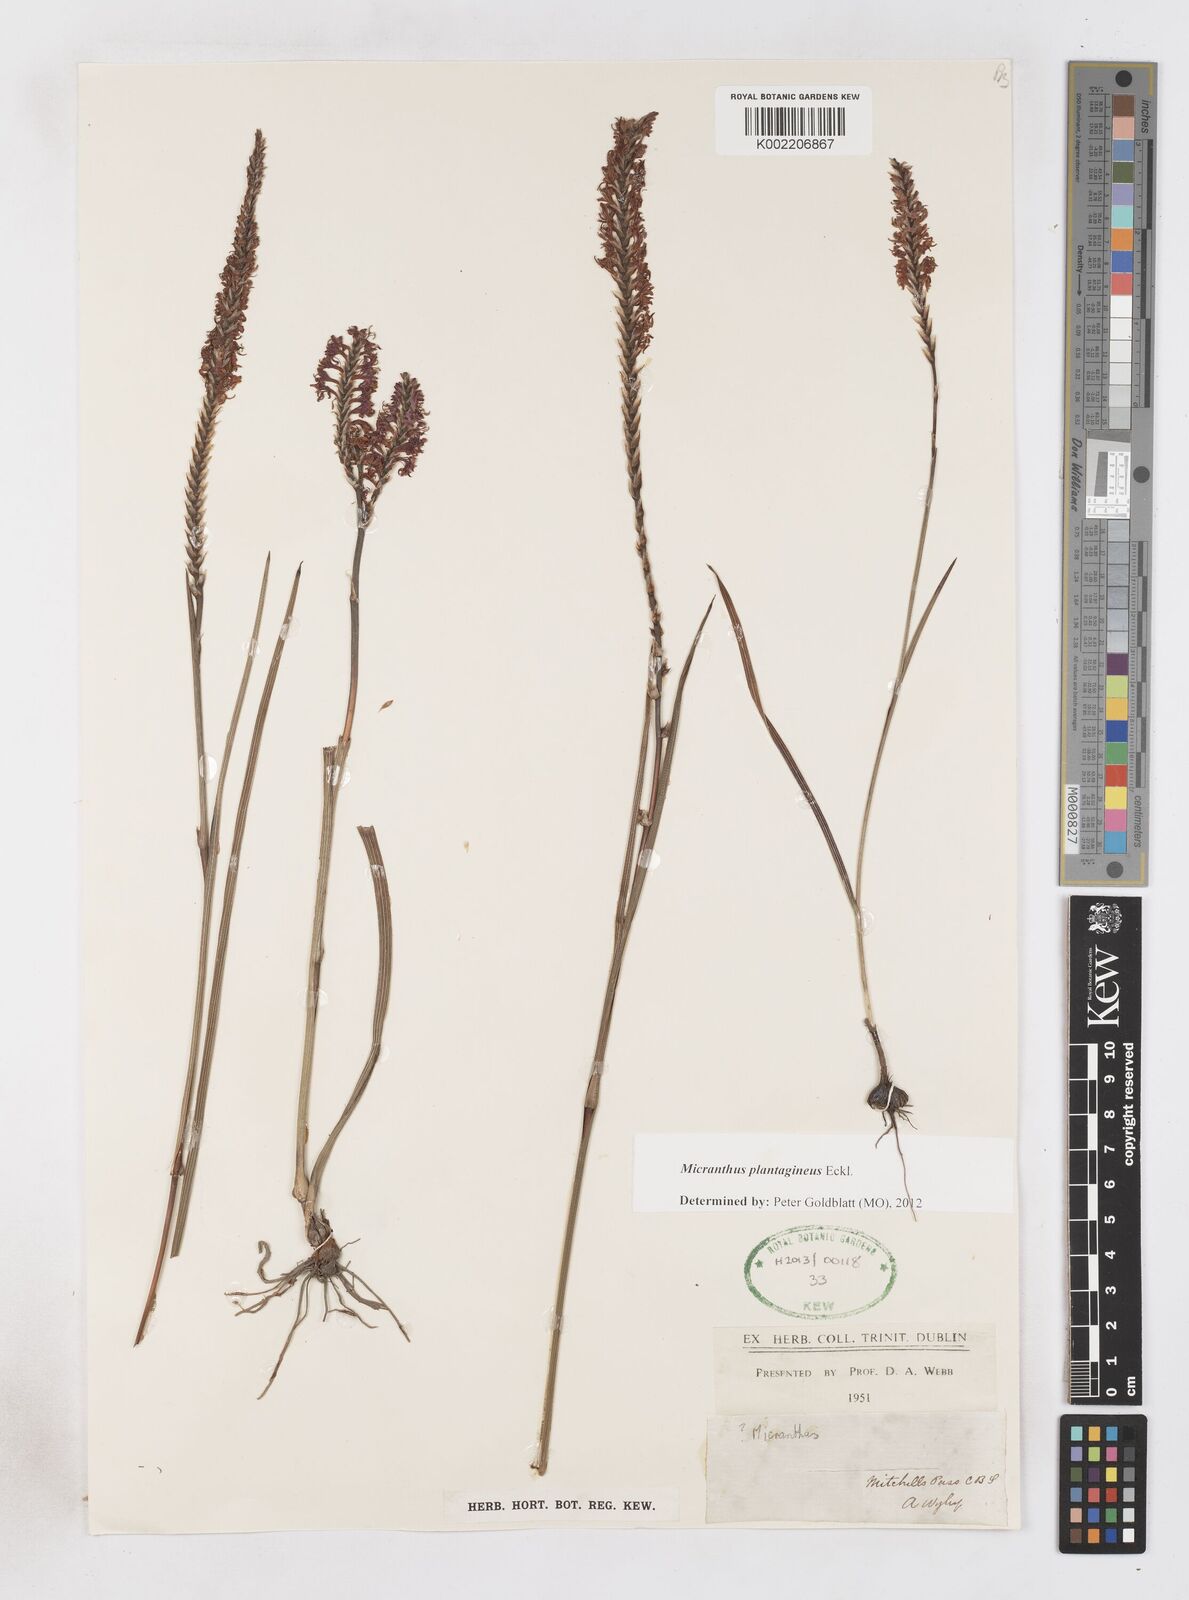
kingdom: Plantae
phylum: Tracheophyta
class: Liliopsida
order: Asparagales
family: Iridaceae
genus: Micranthus
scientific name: Micranthus plantagineus
